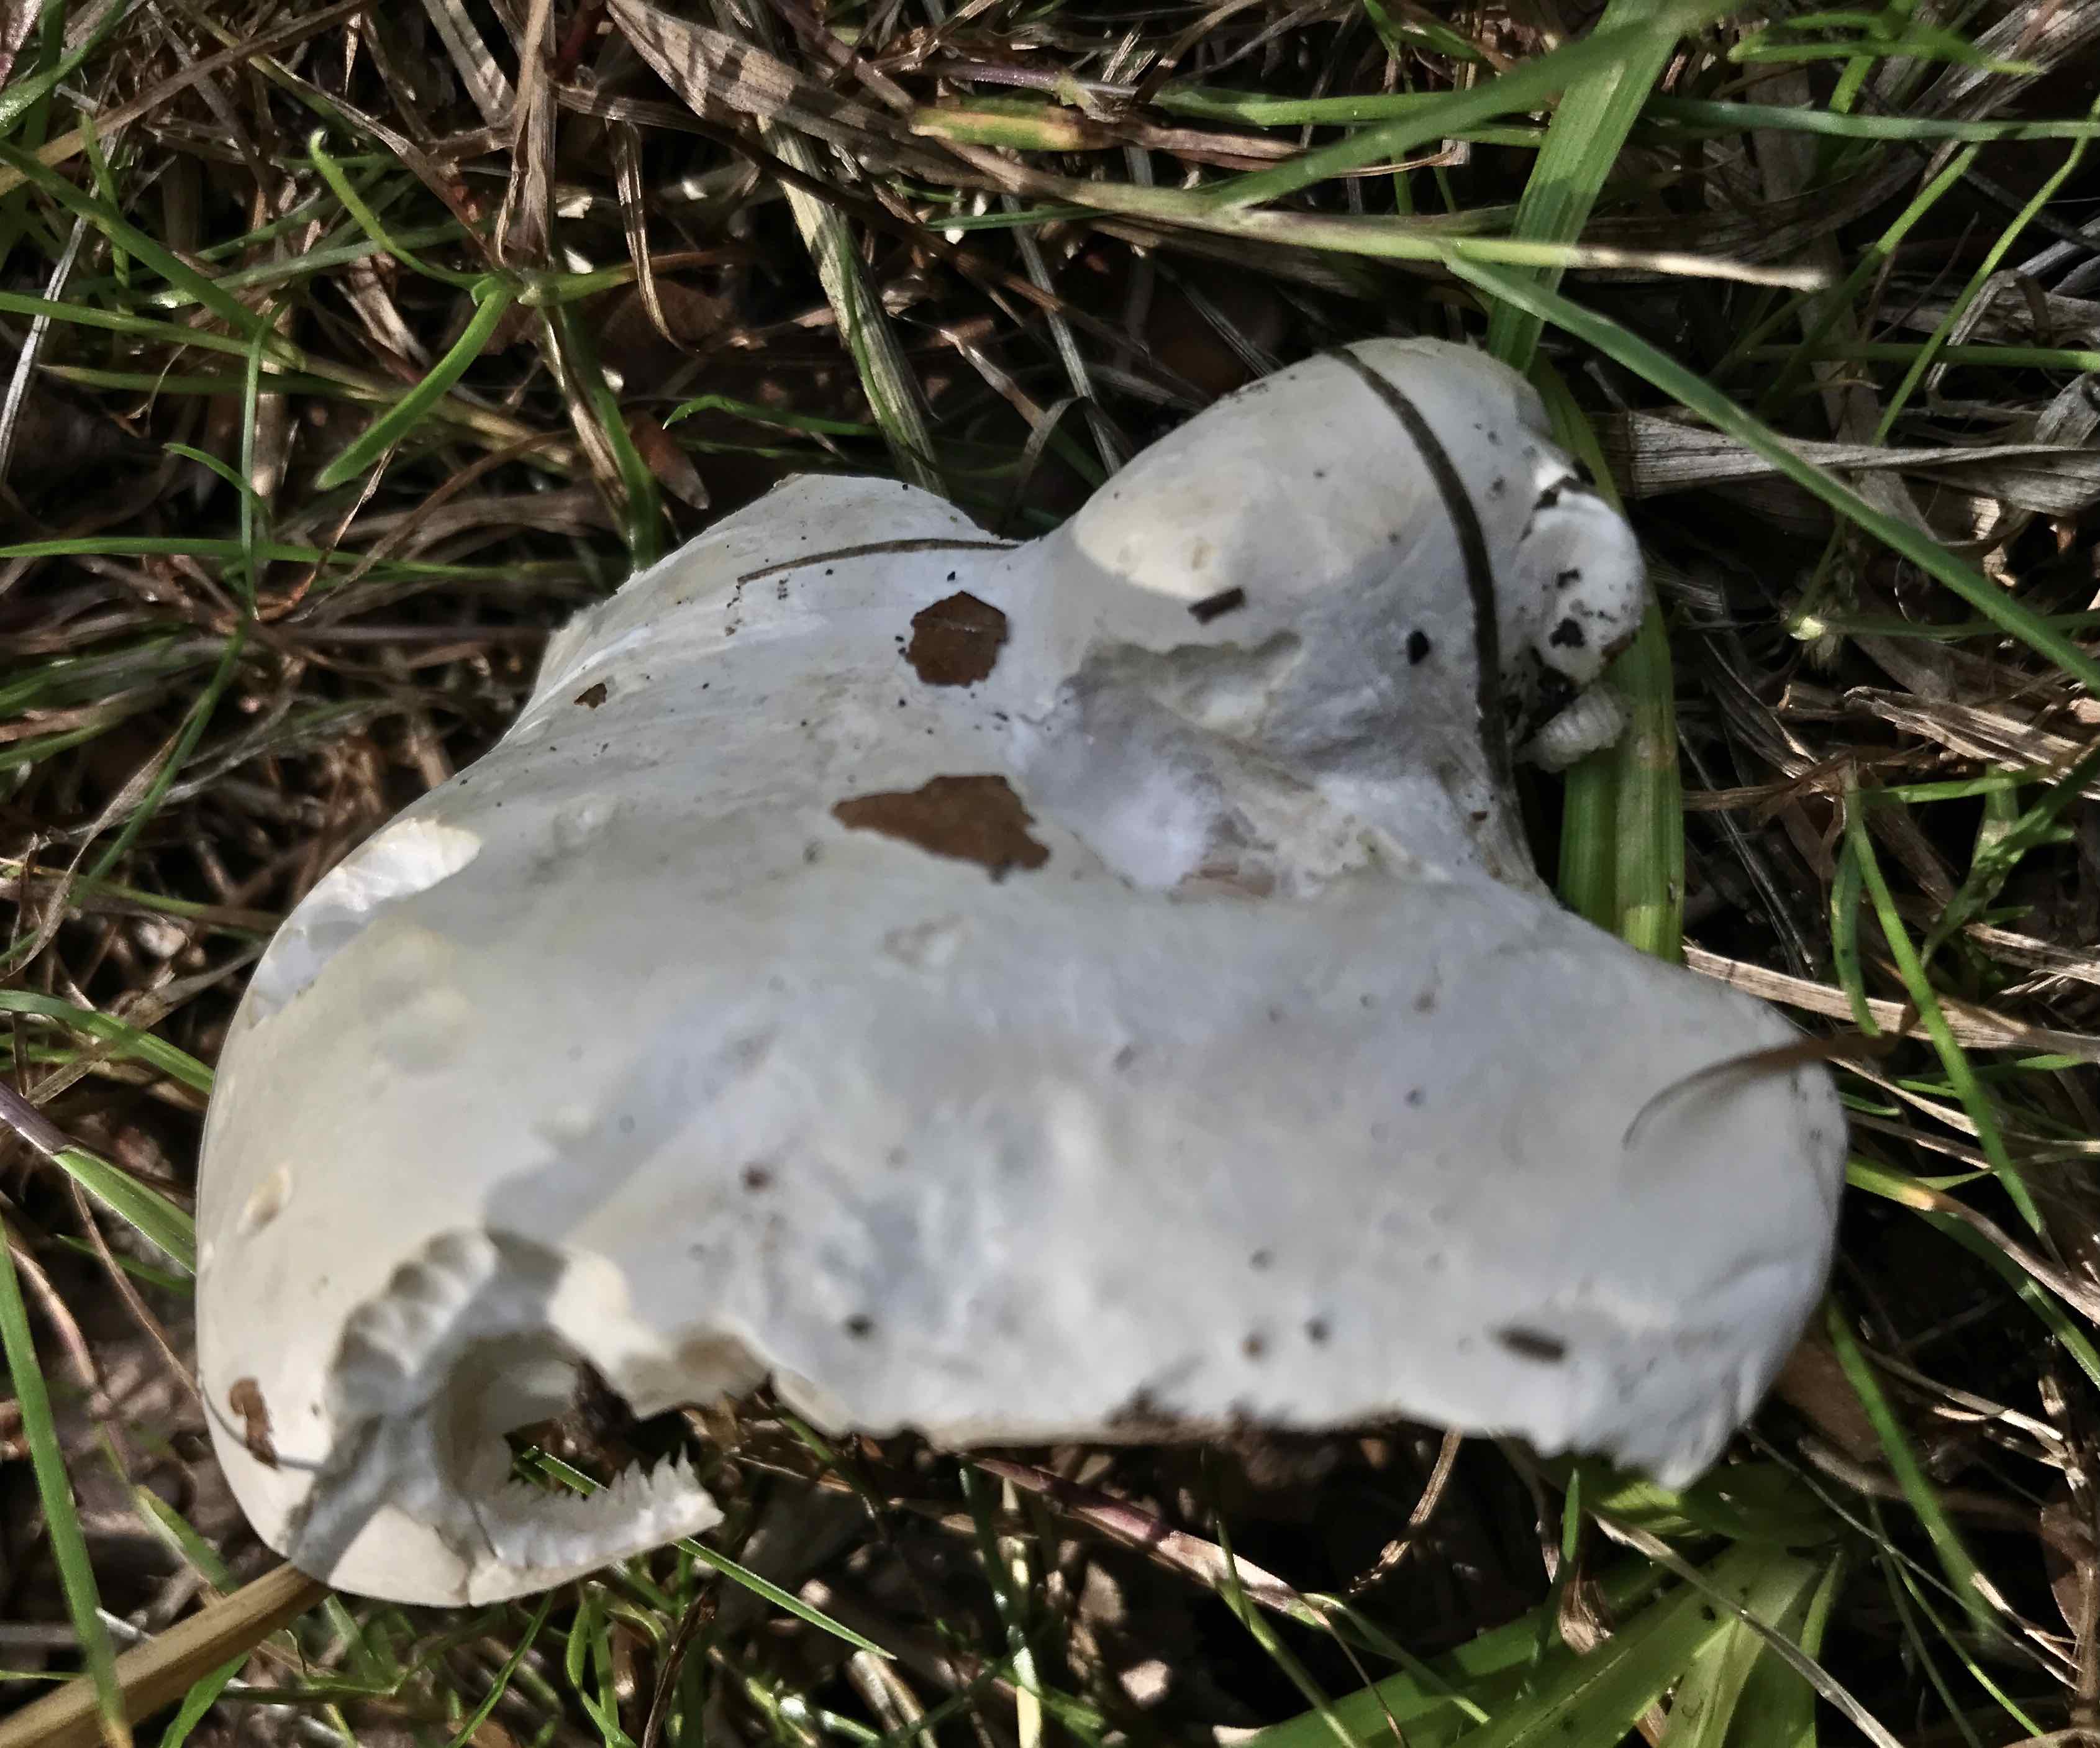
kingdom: Fungi
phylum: Basidiomycota
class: Agaricomycetes
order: Agaricales
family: Entolomataceae
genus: Clitopilus
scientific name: Clitopilus prunulus
